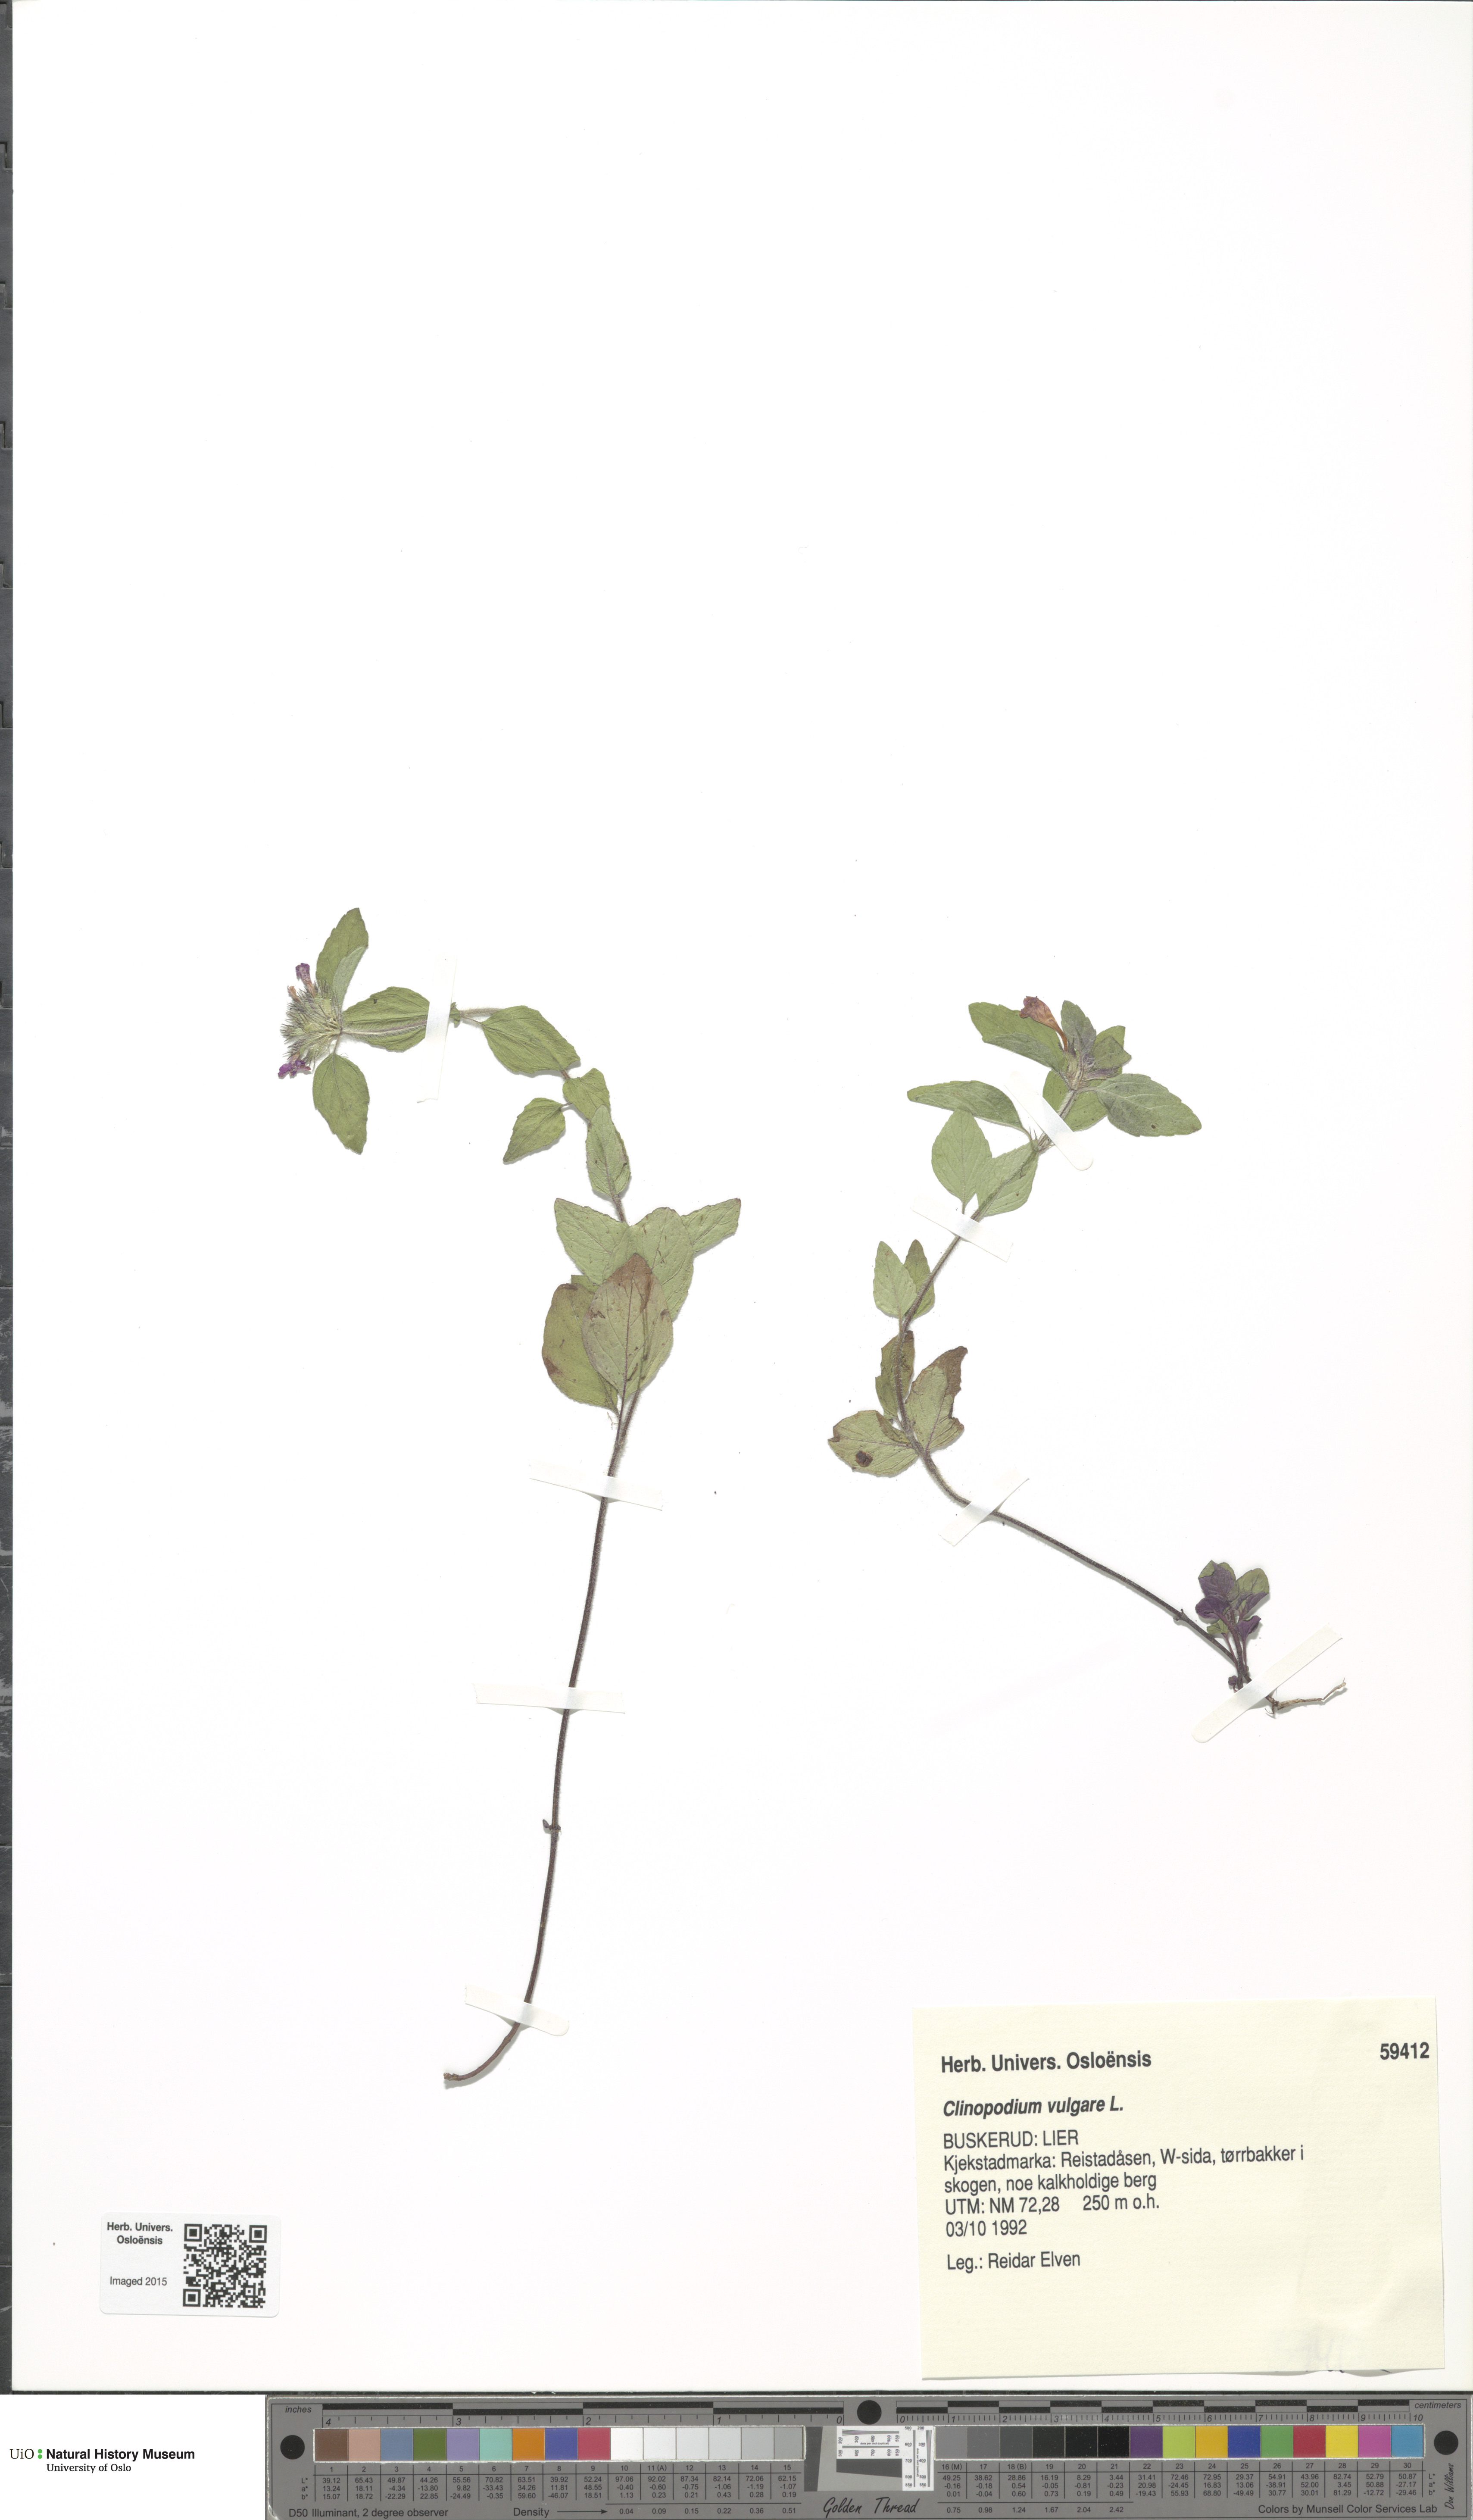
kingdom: Plantae
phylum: Tracheophyta
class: Magnoliopsida
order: Lamiales
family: Lamiaceae
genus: Clinopodium
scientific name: Clinopodium vulgare
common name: Wild basil
